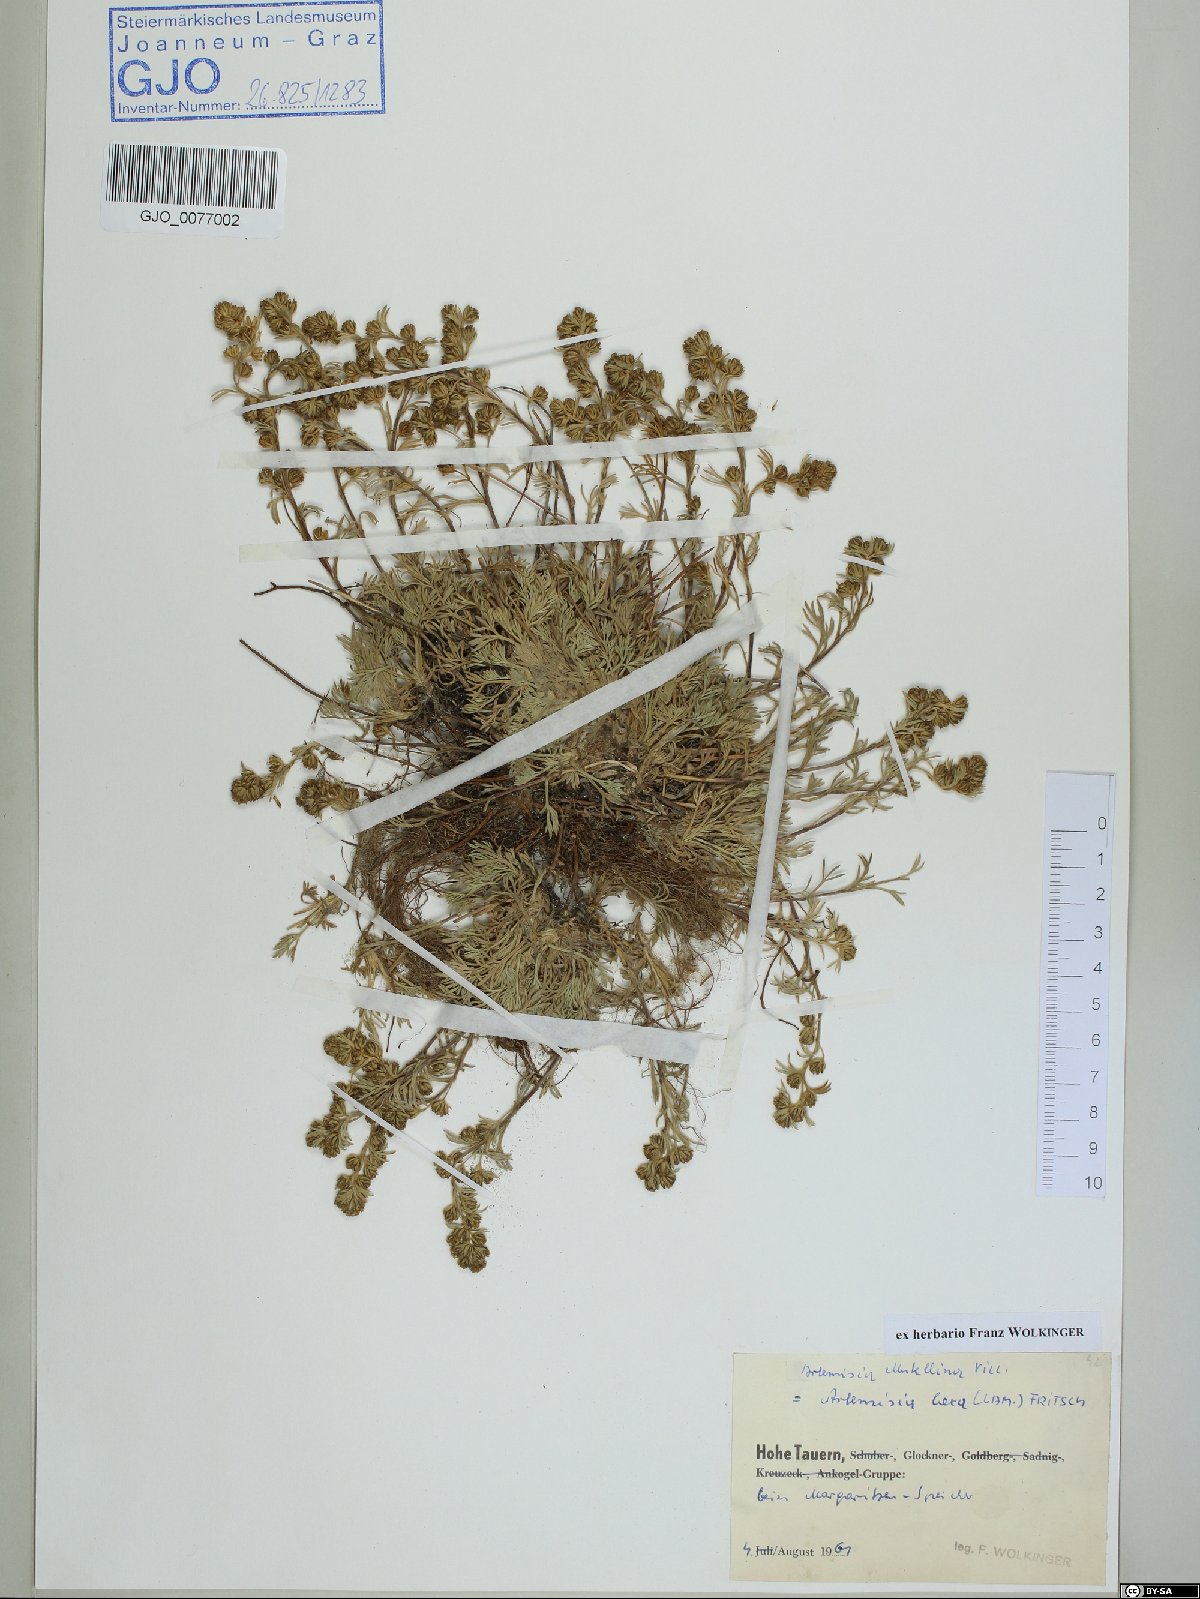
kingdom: Plantae
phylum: Tracheophyta
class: Magnoliopsida
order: Asterales
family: Asteraceae
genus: Artemisia
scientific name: Artemisia mutellina
